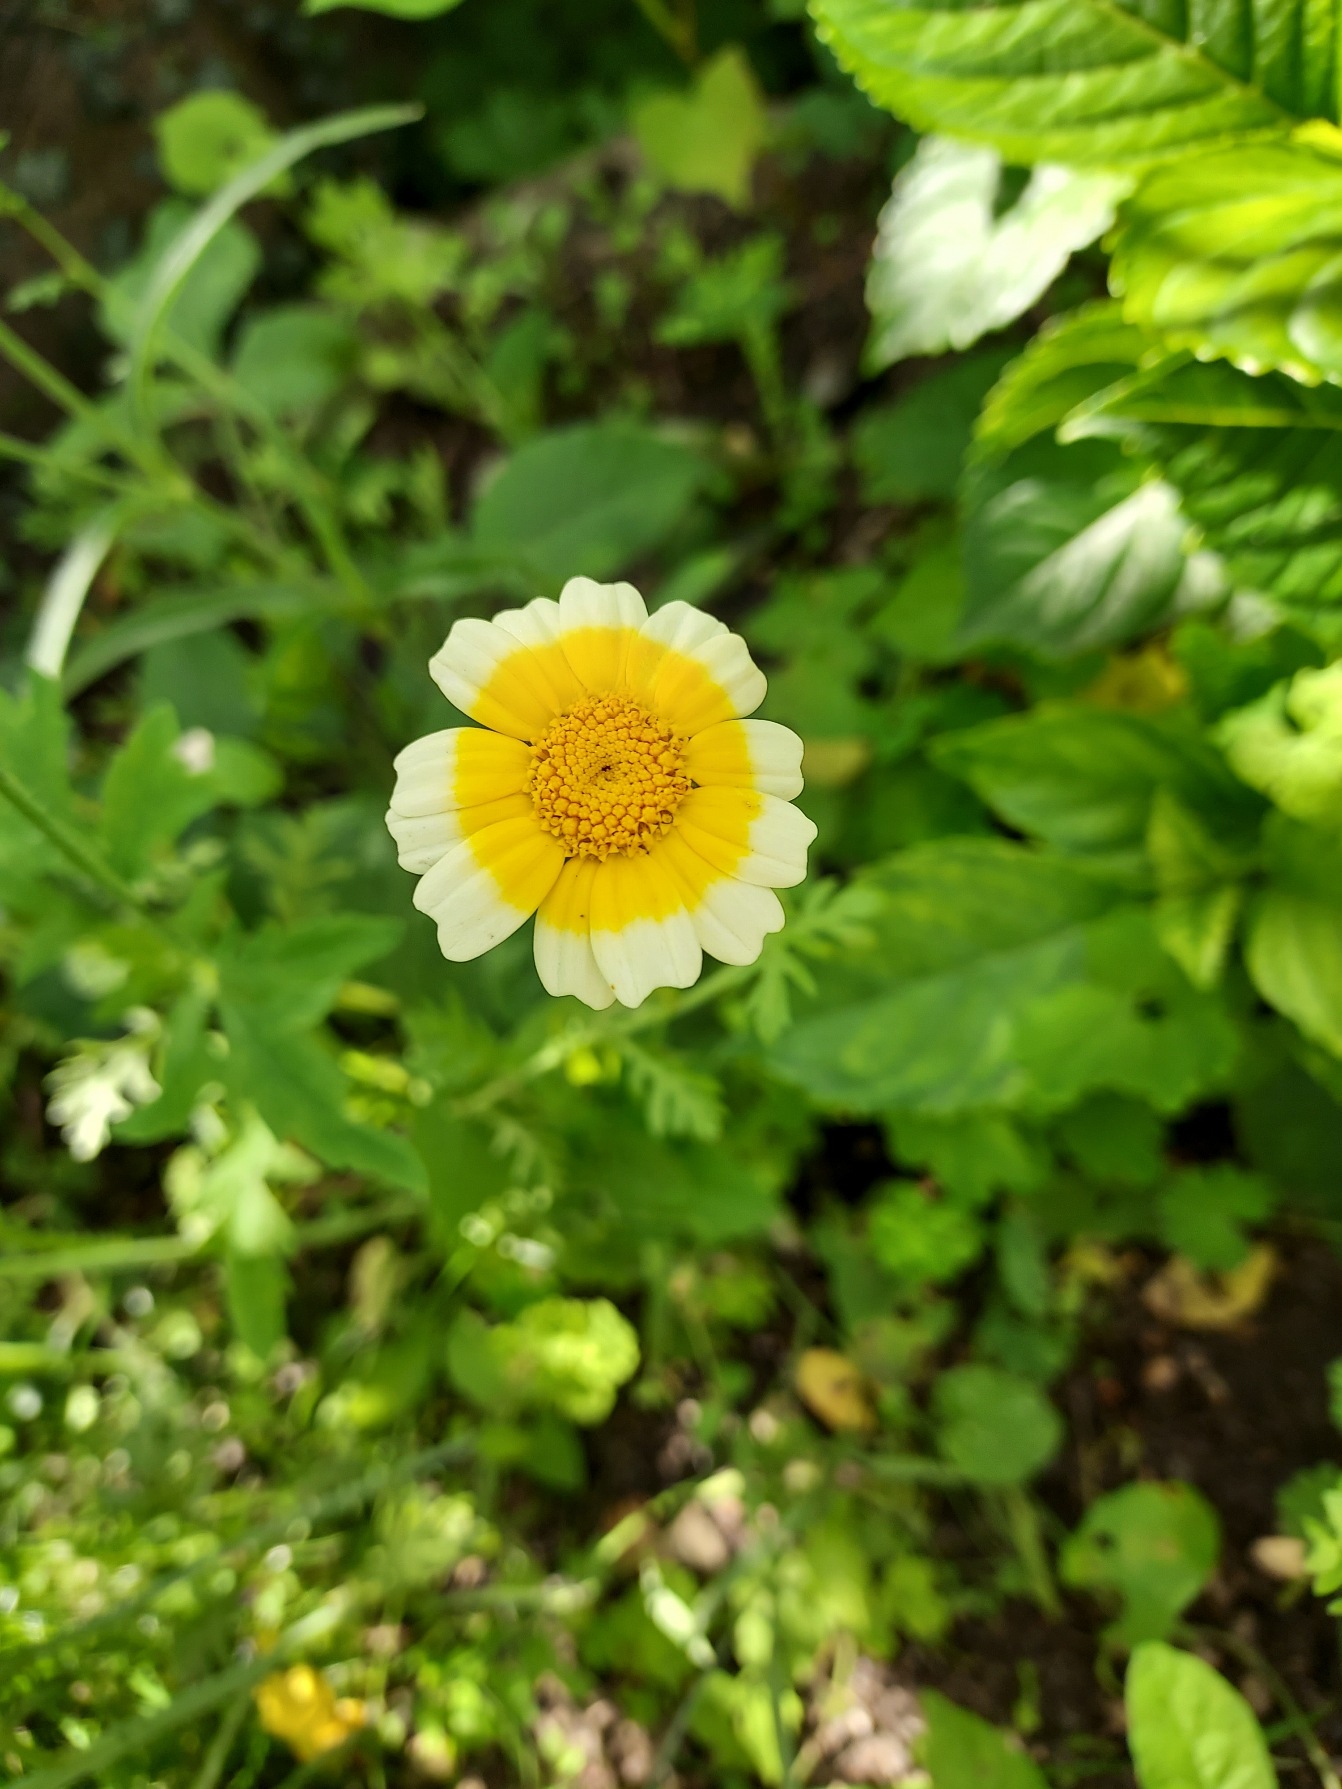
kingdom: Plantae
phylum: Tracheophyta
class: Magnoliopsida
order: Asterales
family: Asteraceae
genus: Glebionis
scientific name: Glebionis coronaria
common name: Kron-okseøje
